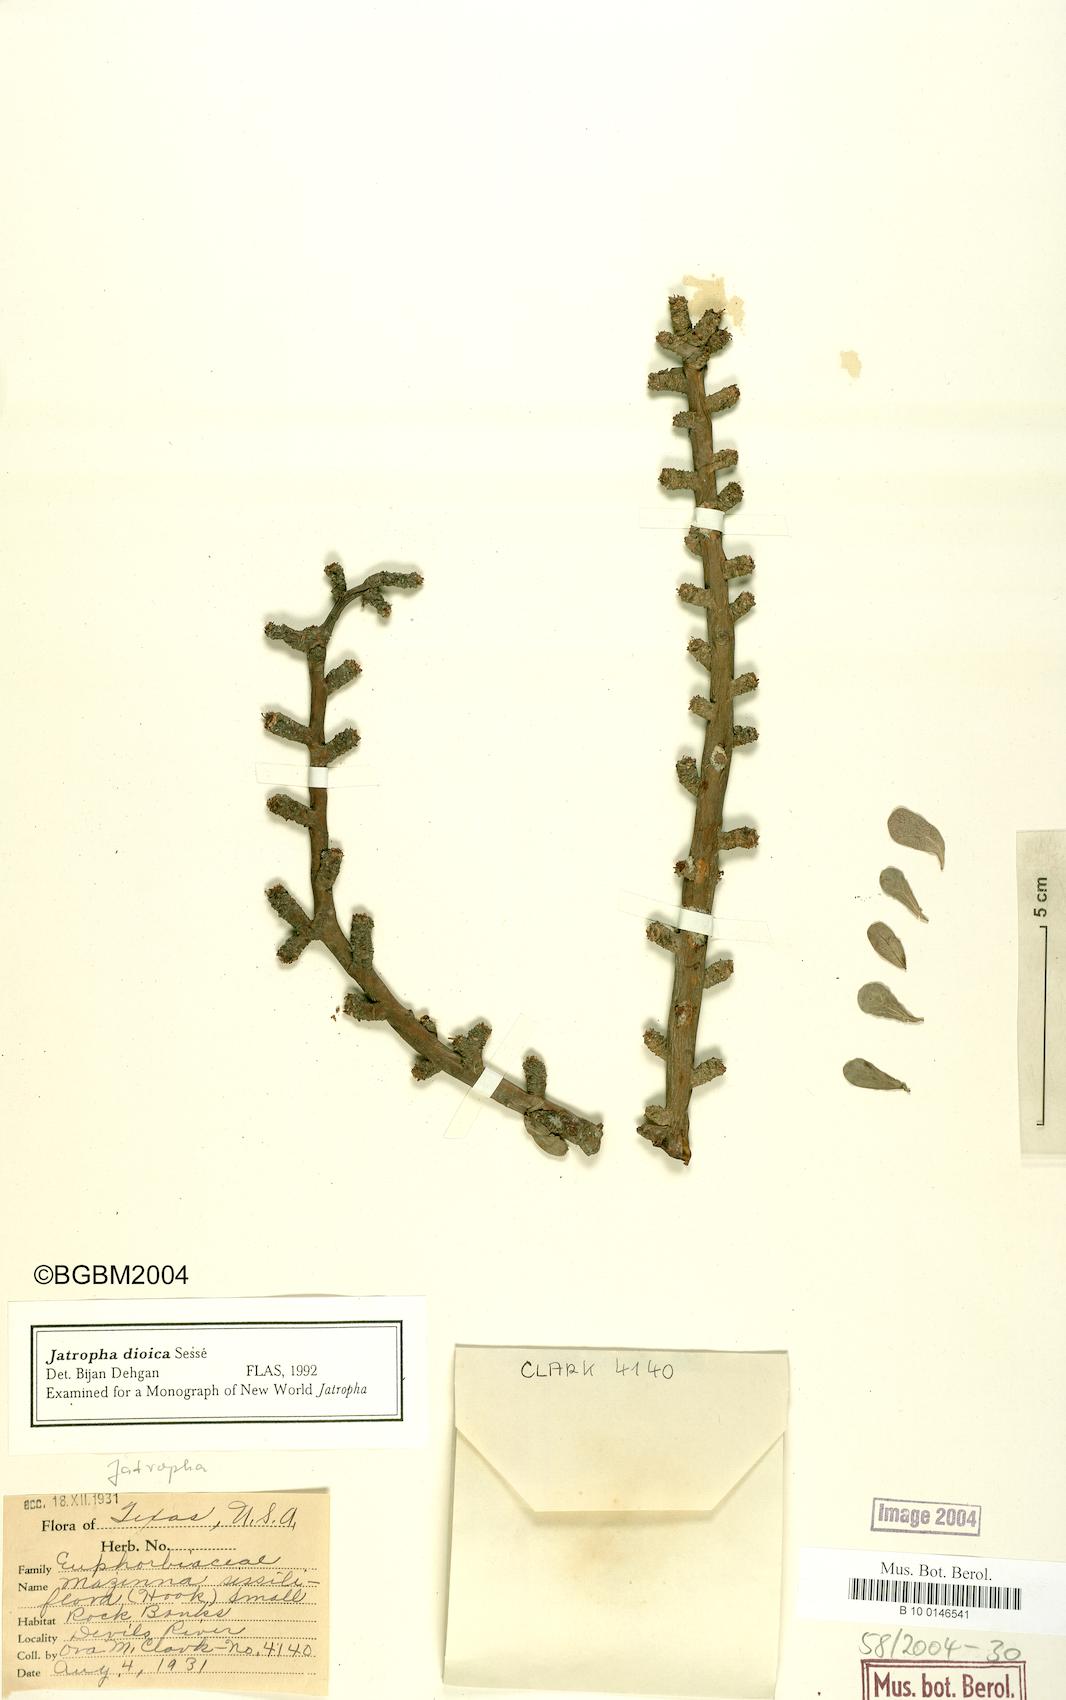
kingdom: Plantae
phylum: Tracheophyta
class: Magnoliopsida
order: Malpighiales
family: Euphorbiaceae
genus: Jatropha
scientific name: Jatropha dioica
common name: Leatherstem
